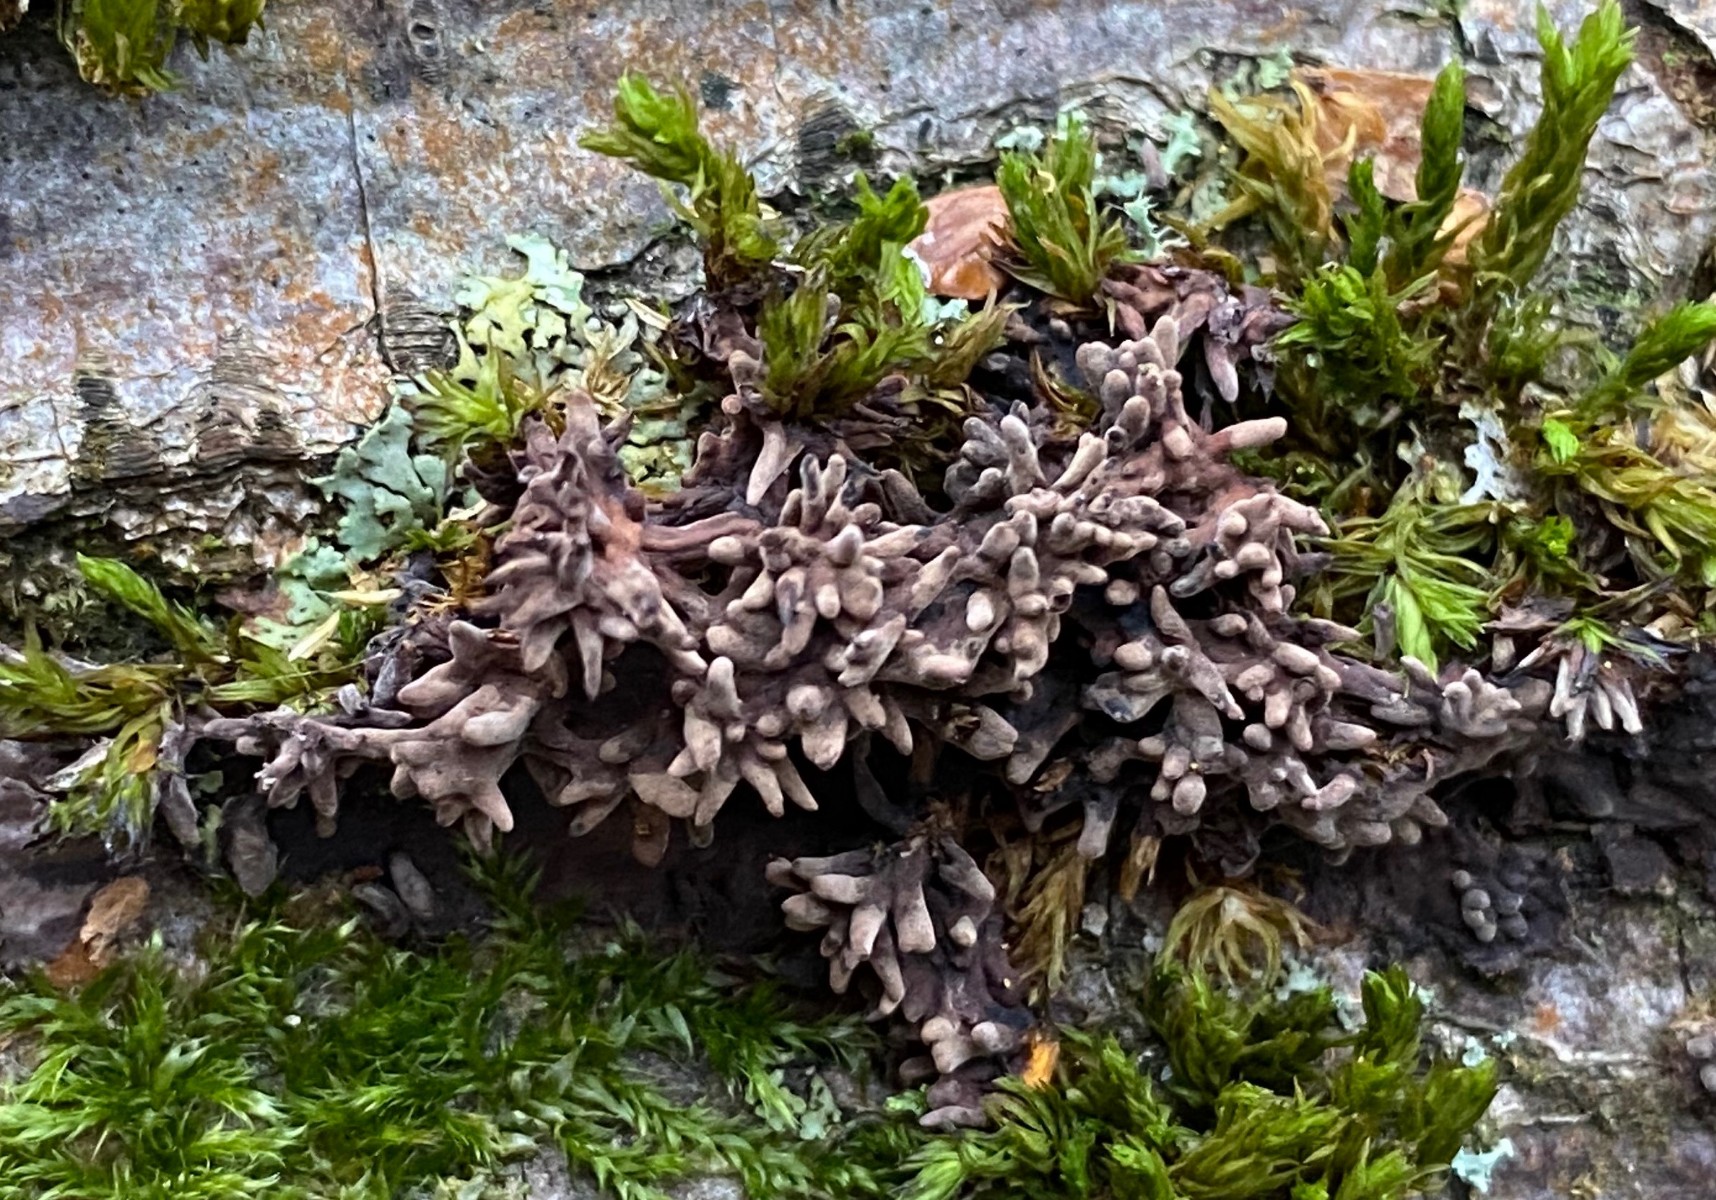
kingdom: Fungi
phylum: Basidiomycota
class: Agaricomycetes
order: Russulales
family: Peniophoraceae
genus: Peniophora
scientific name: Peniophora rufomarginata
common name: linde-voksskind
